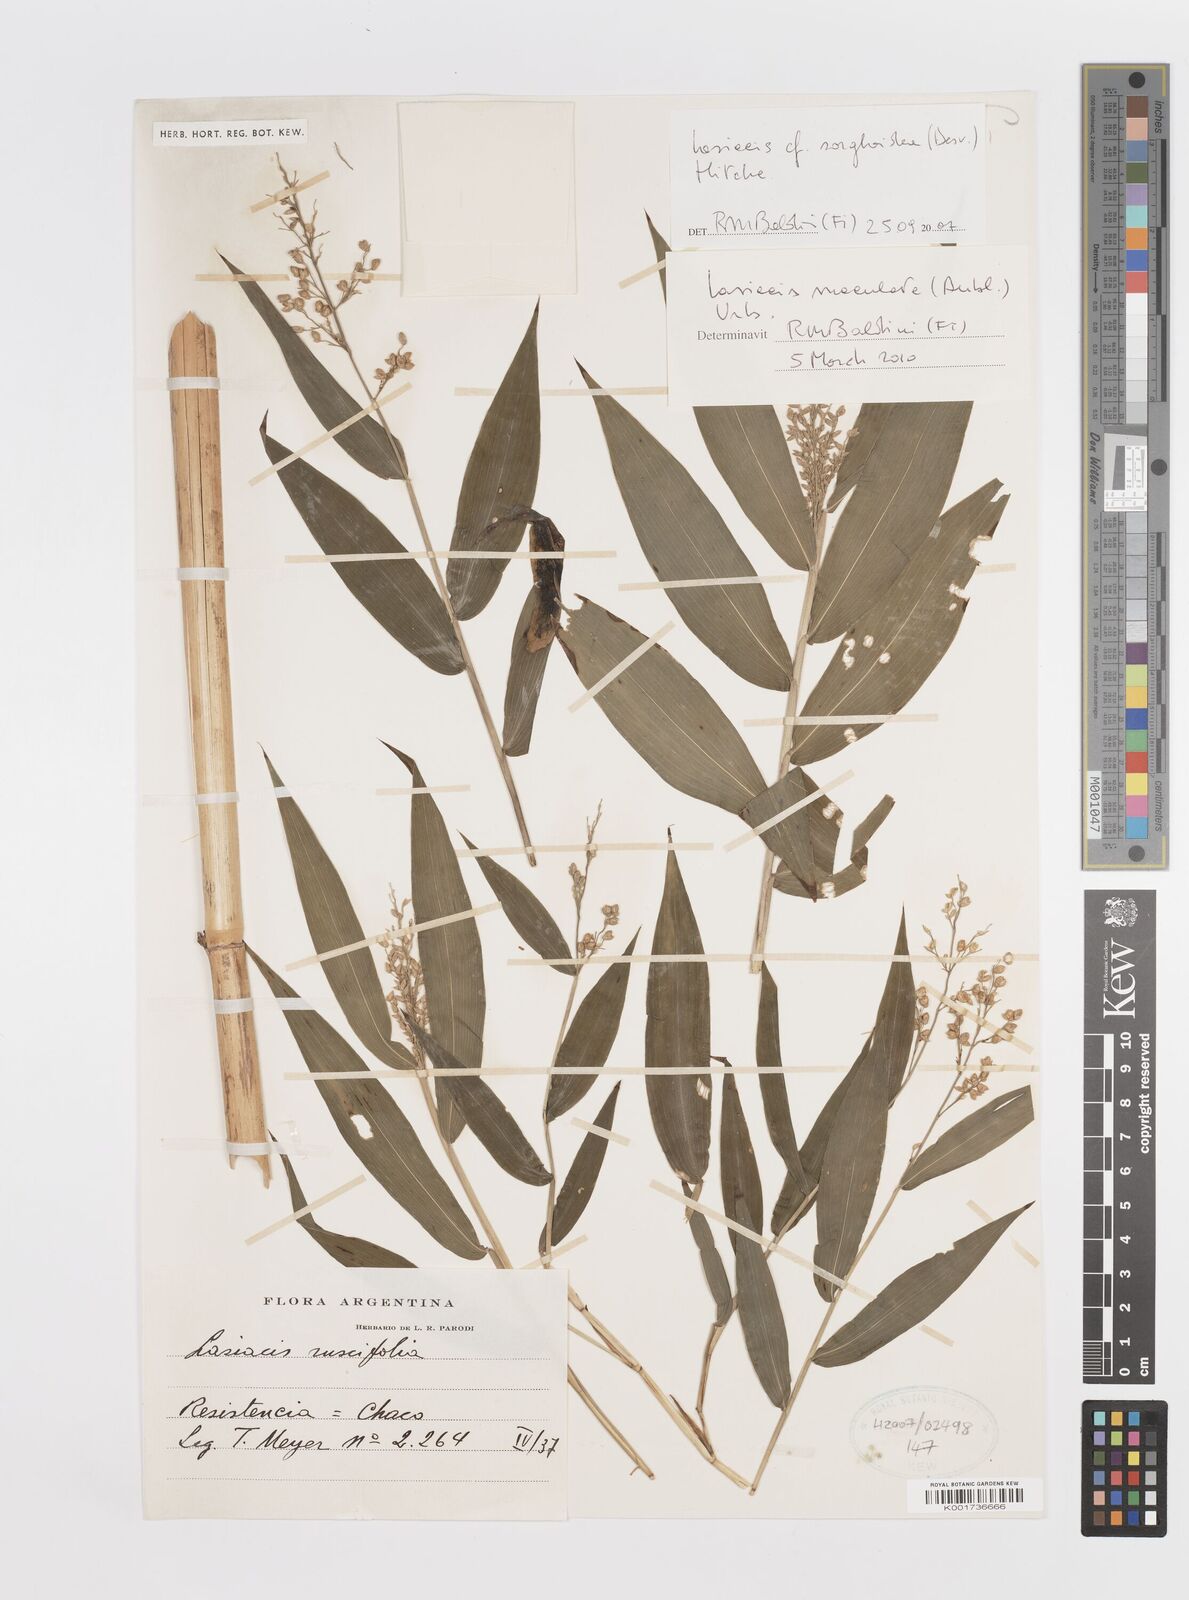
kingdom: Plantae
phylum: Tracheophyta
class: Liliopsida
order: Poales
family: Poaceae
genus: Lasiacis
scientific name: Lasiacis maculata
